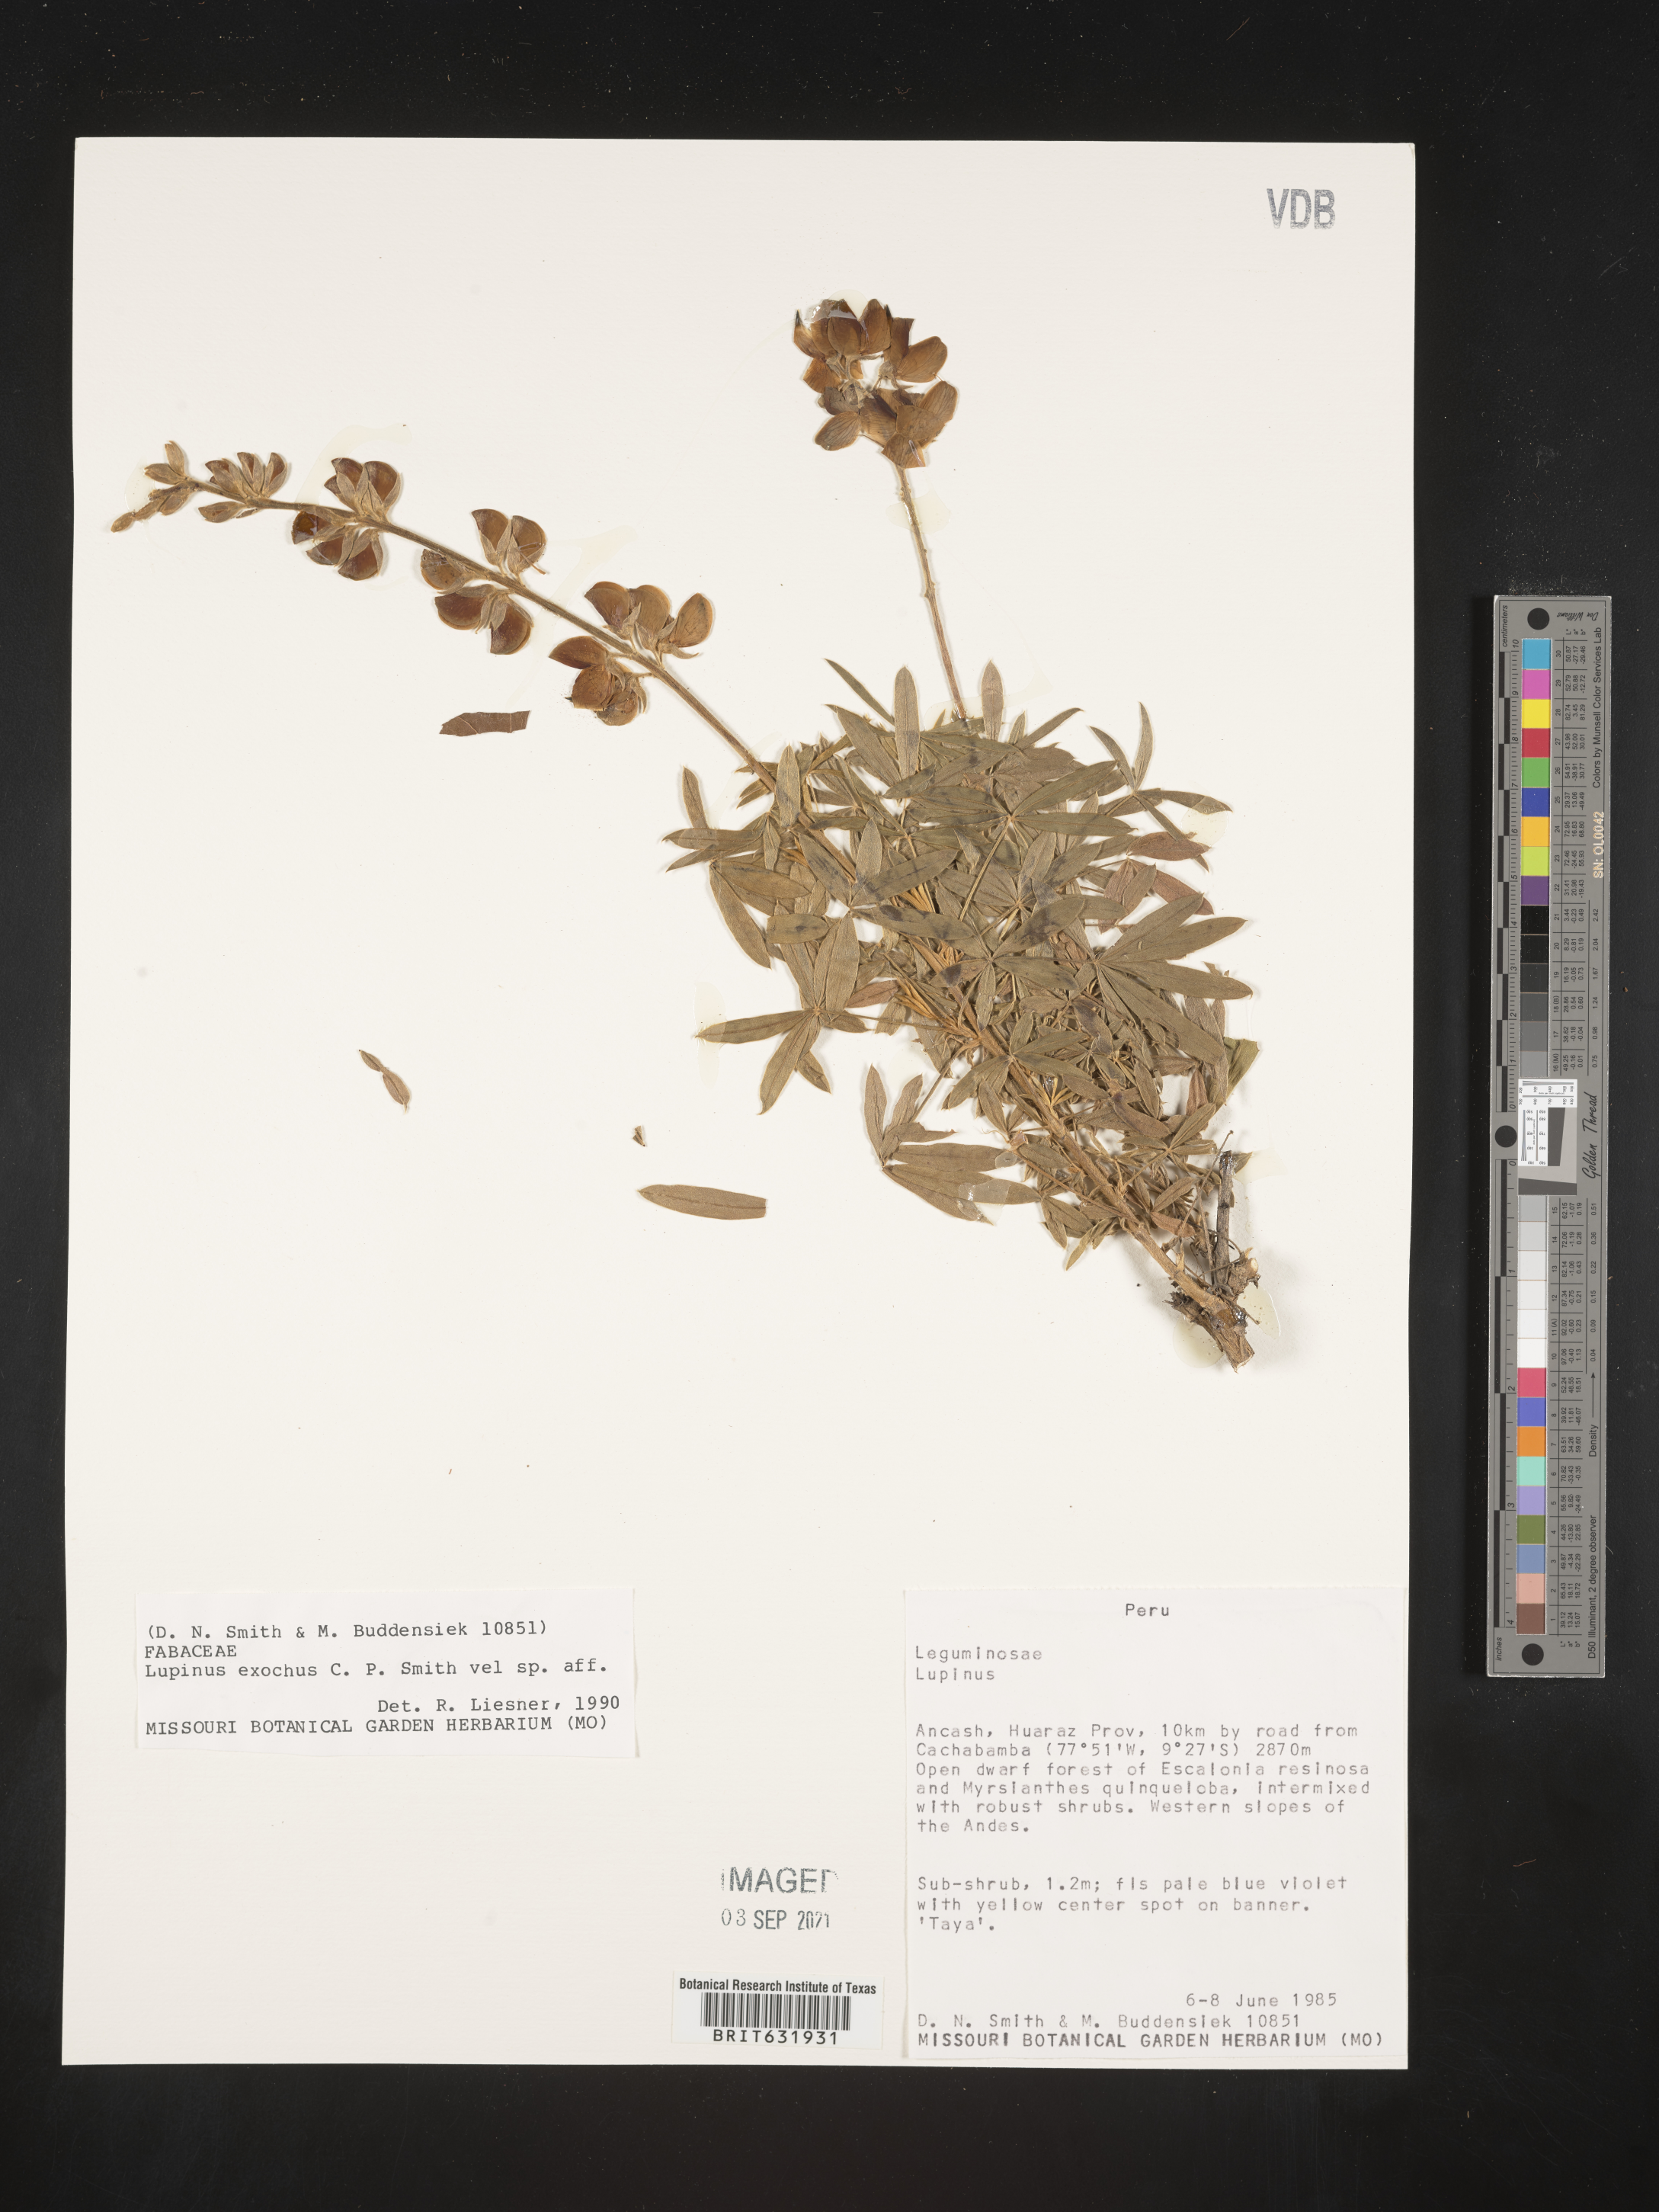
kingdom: Plantae
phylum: Tracheophyta
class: Magnoliopsida
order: Fabales
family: Fabaceae
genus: Lupinus
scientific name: Lupinus
